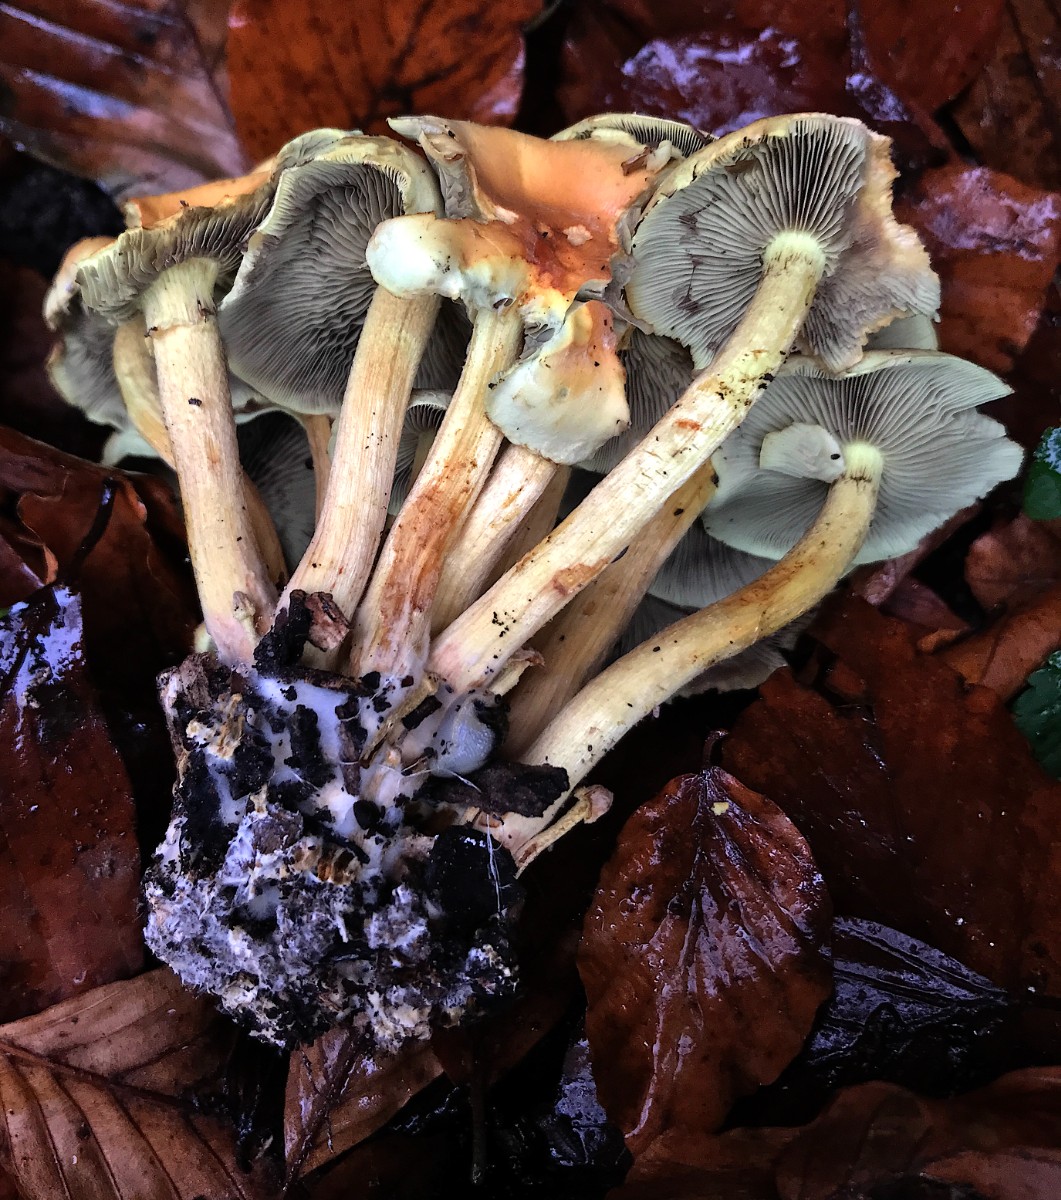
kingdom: Fungi
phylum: Basidiomycota
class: Agaricomycetes
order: Agaricales
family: Strophariaceae
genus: Hypholoma
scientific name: Hypholoma fasciculare
